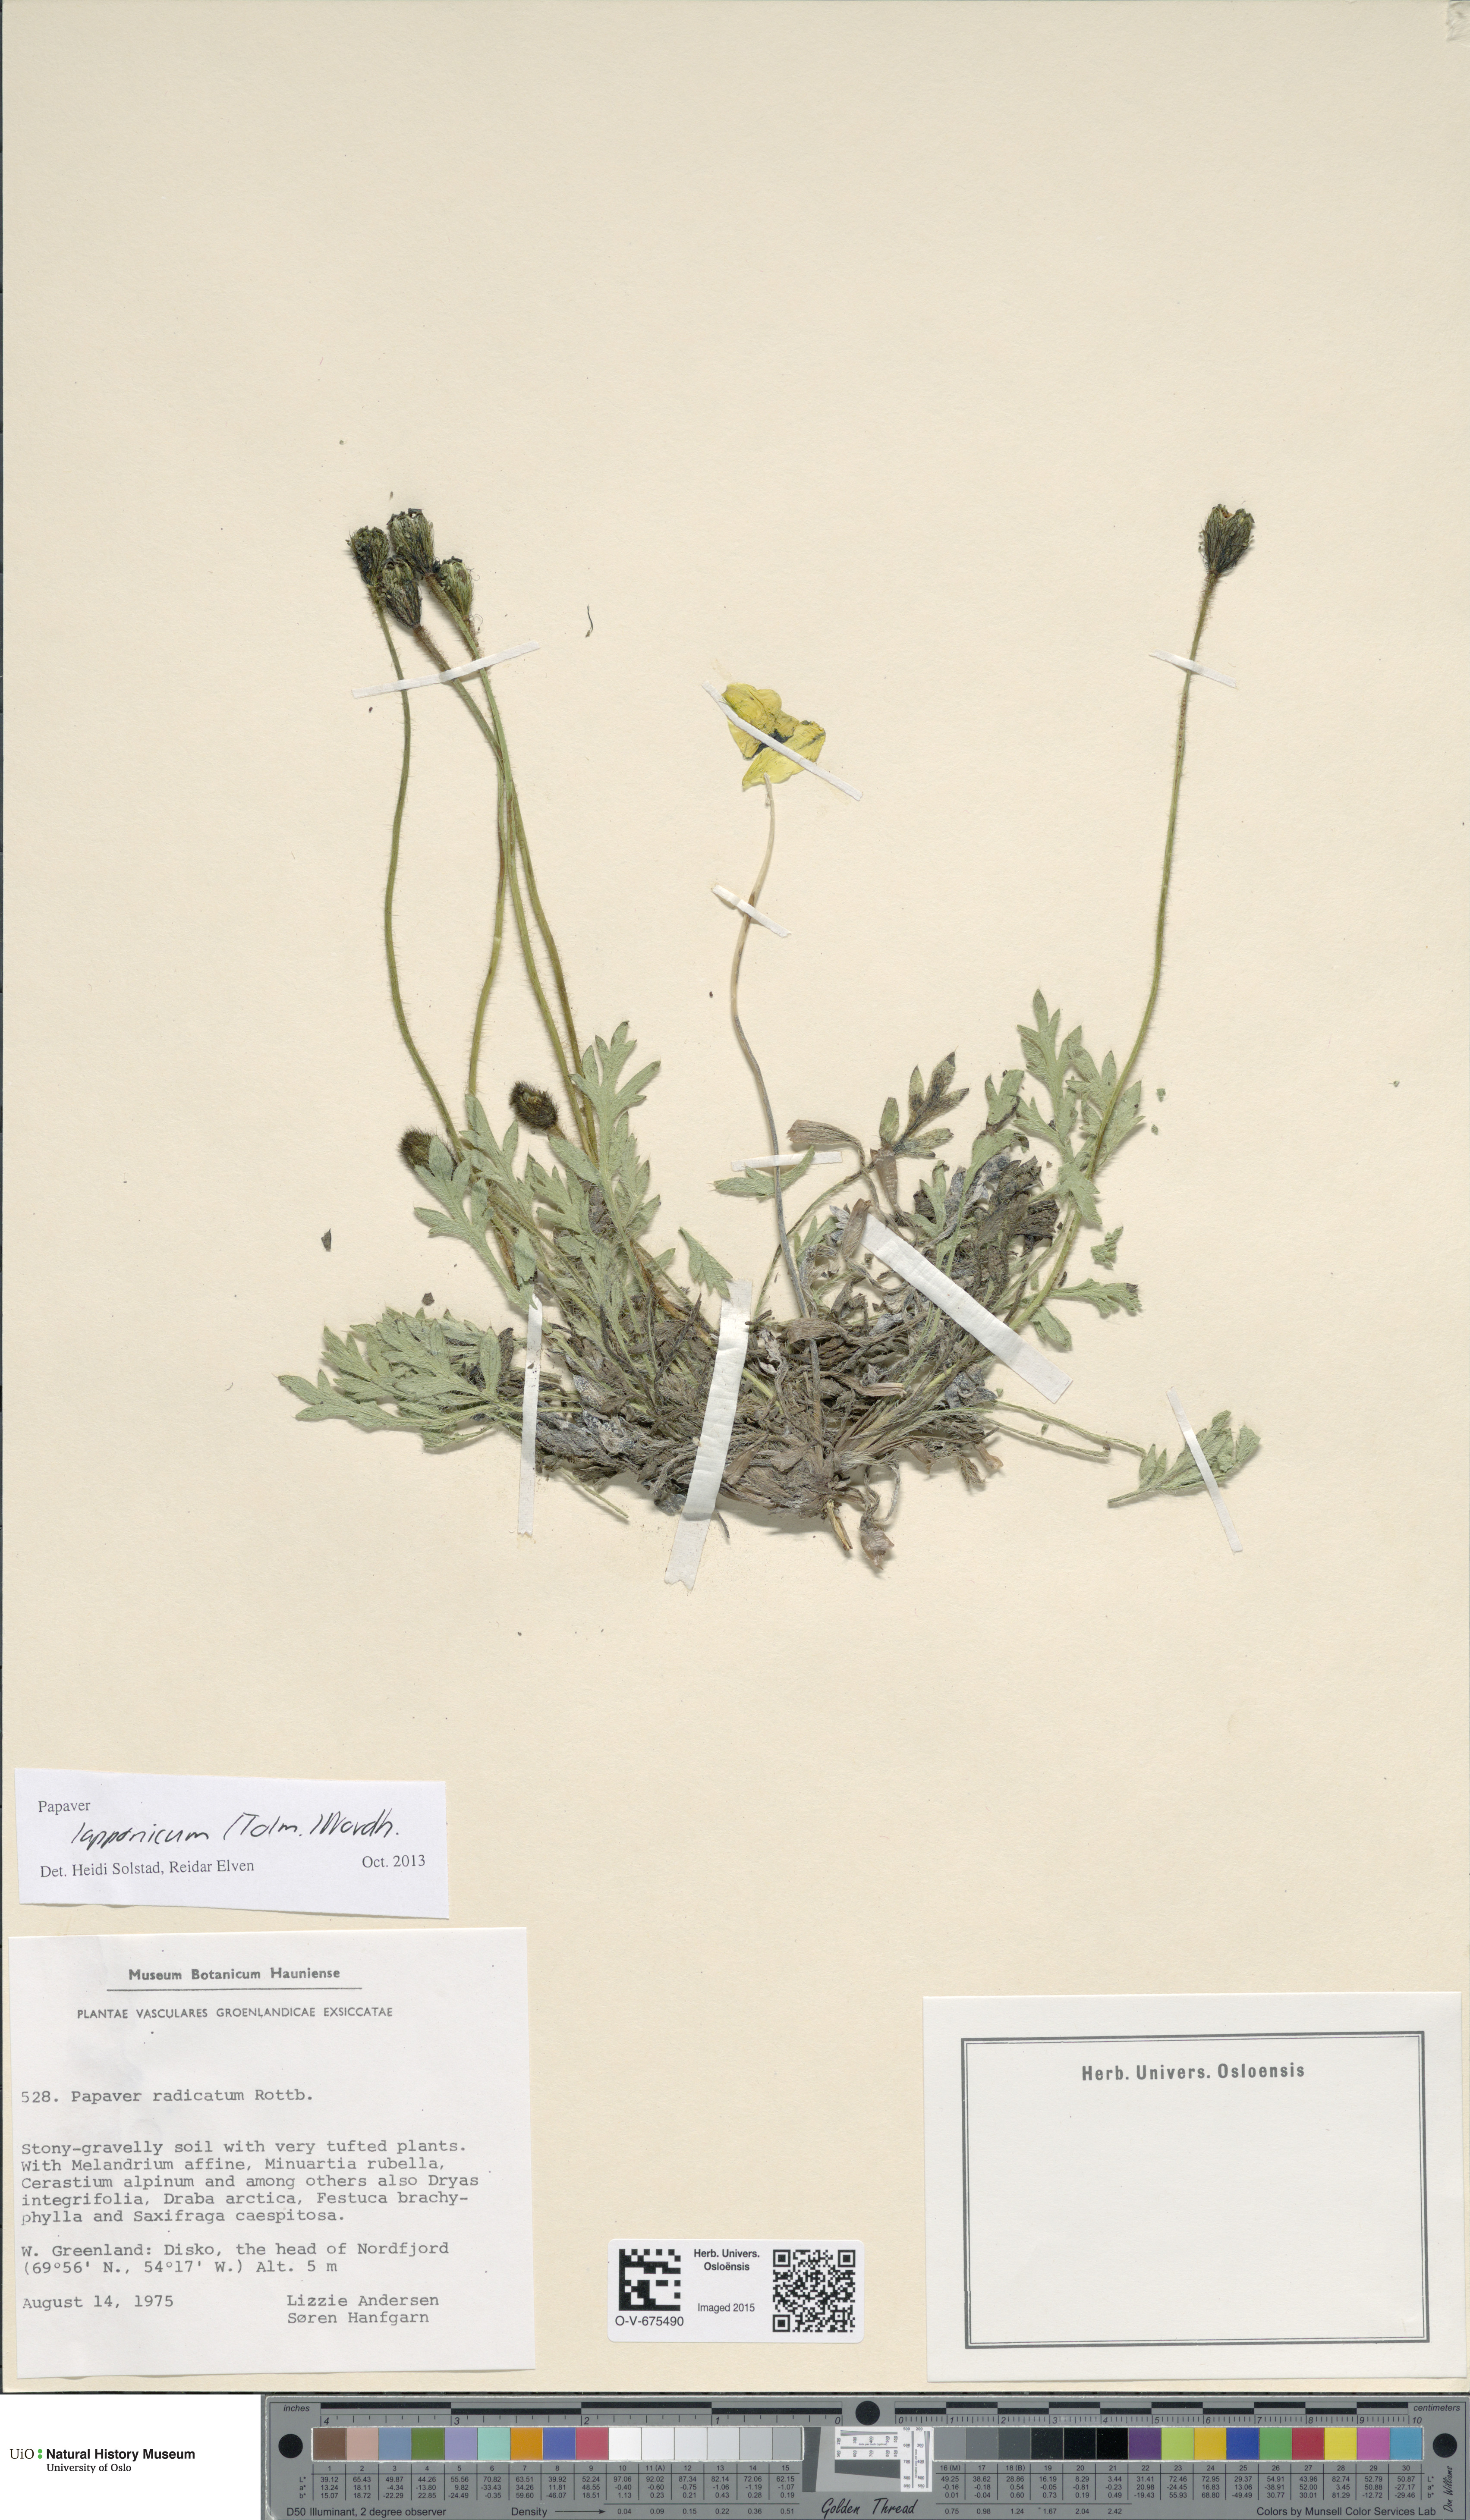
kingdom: Plantae
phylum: Tracheophyta
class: Magnoliopsida
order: Ranunculales
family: Papaveraceae
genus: Papaver
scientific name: Papaver lapponicum
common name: Lapland poppy
